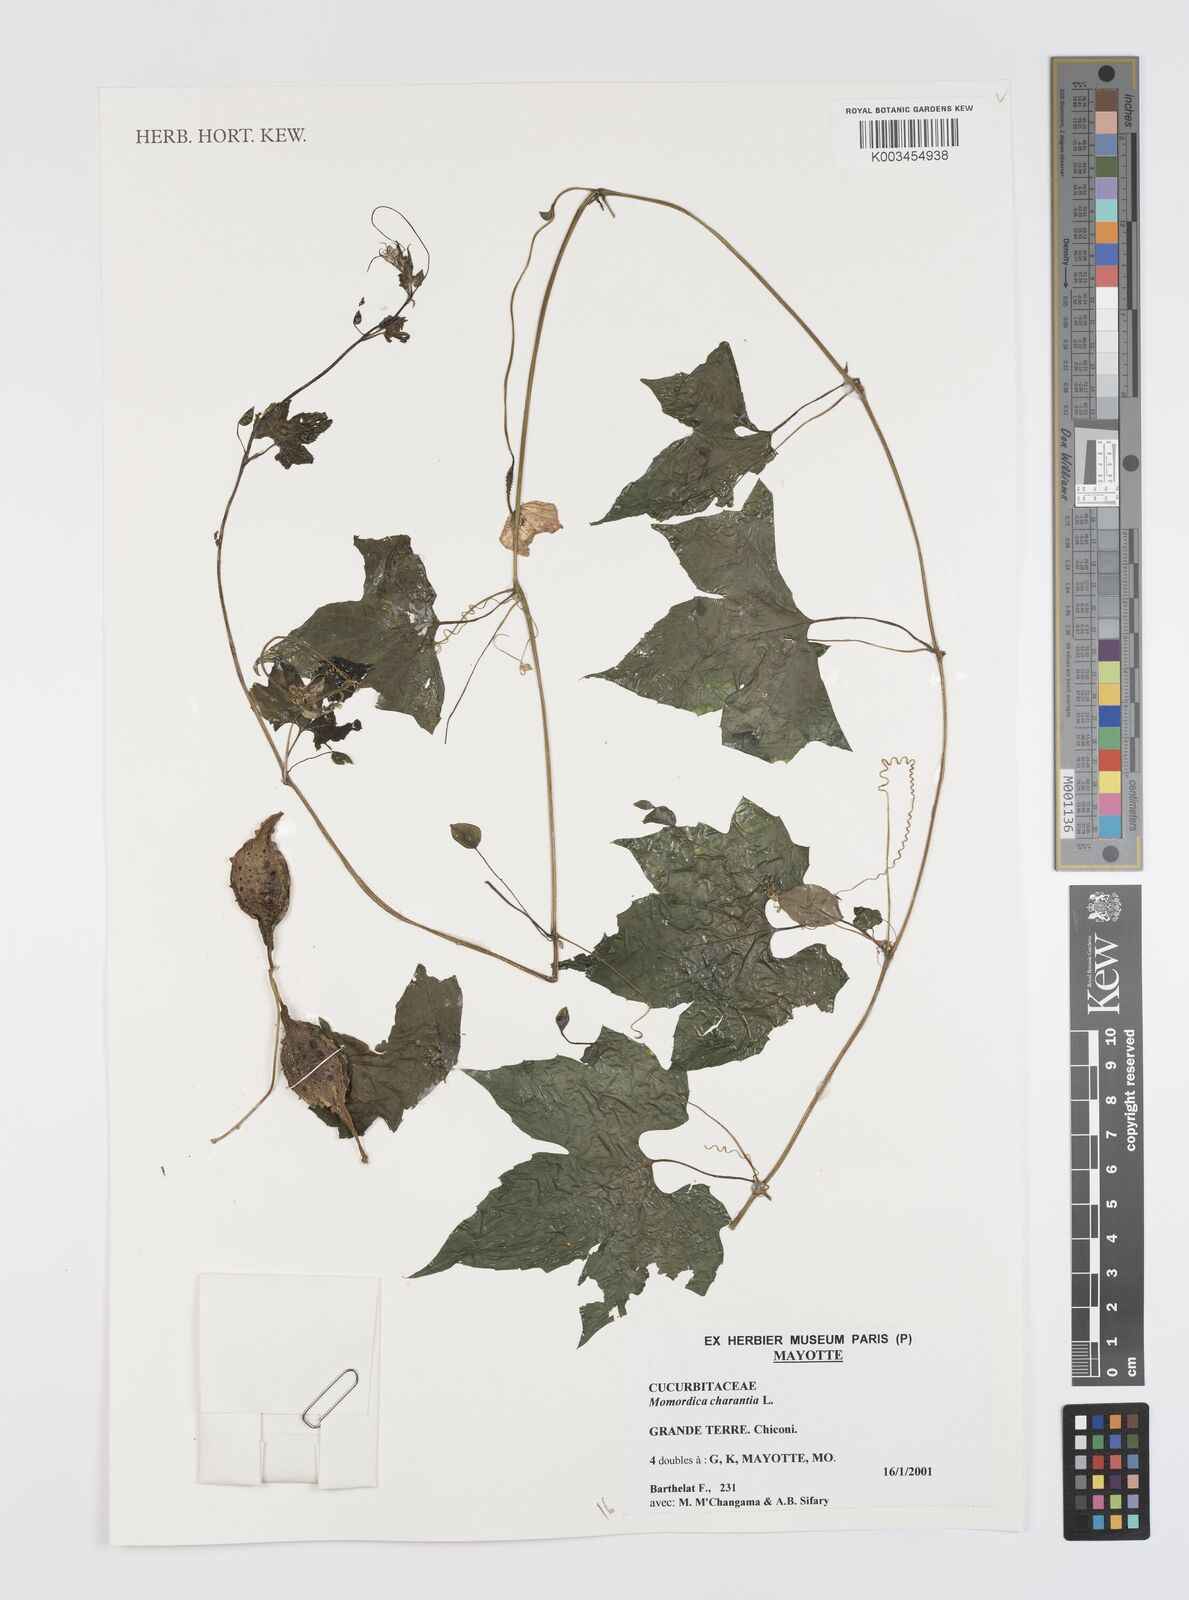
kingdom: Plantae
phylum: Tracheophyta
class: Magnoliopsida
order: Cucurbitales
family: Cucurbitaceae
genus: Momordica
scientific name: Momordica charantia
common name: Balsampear
